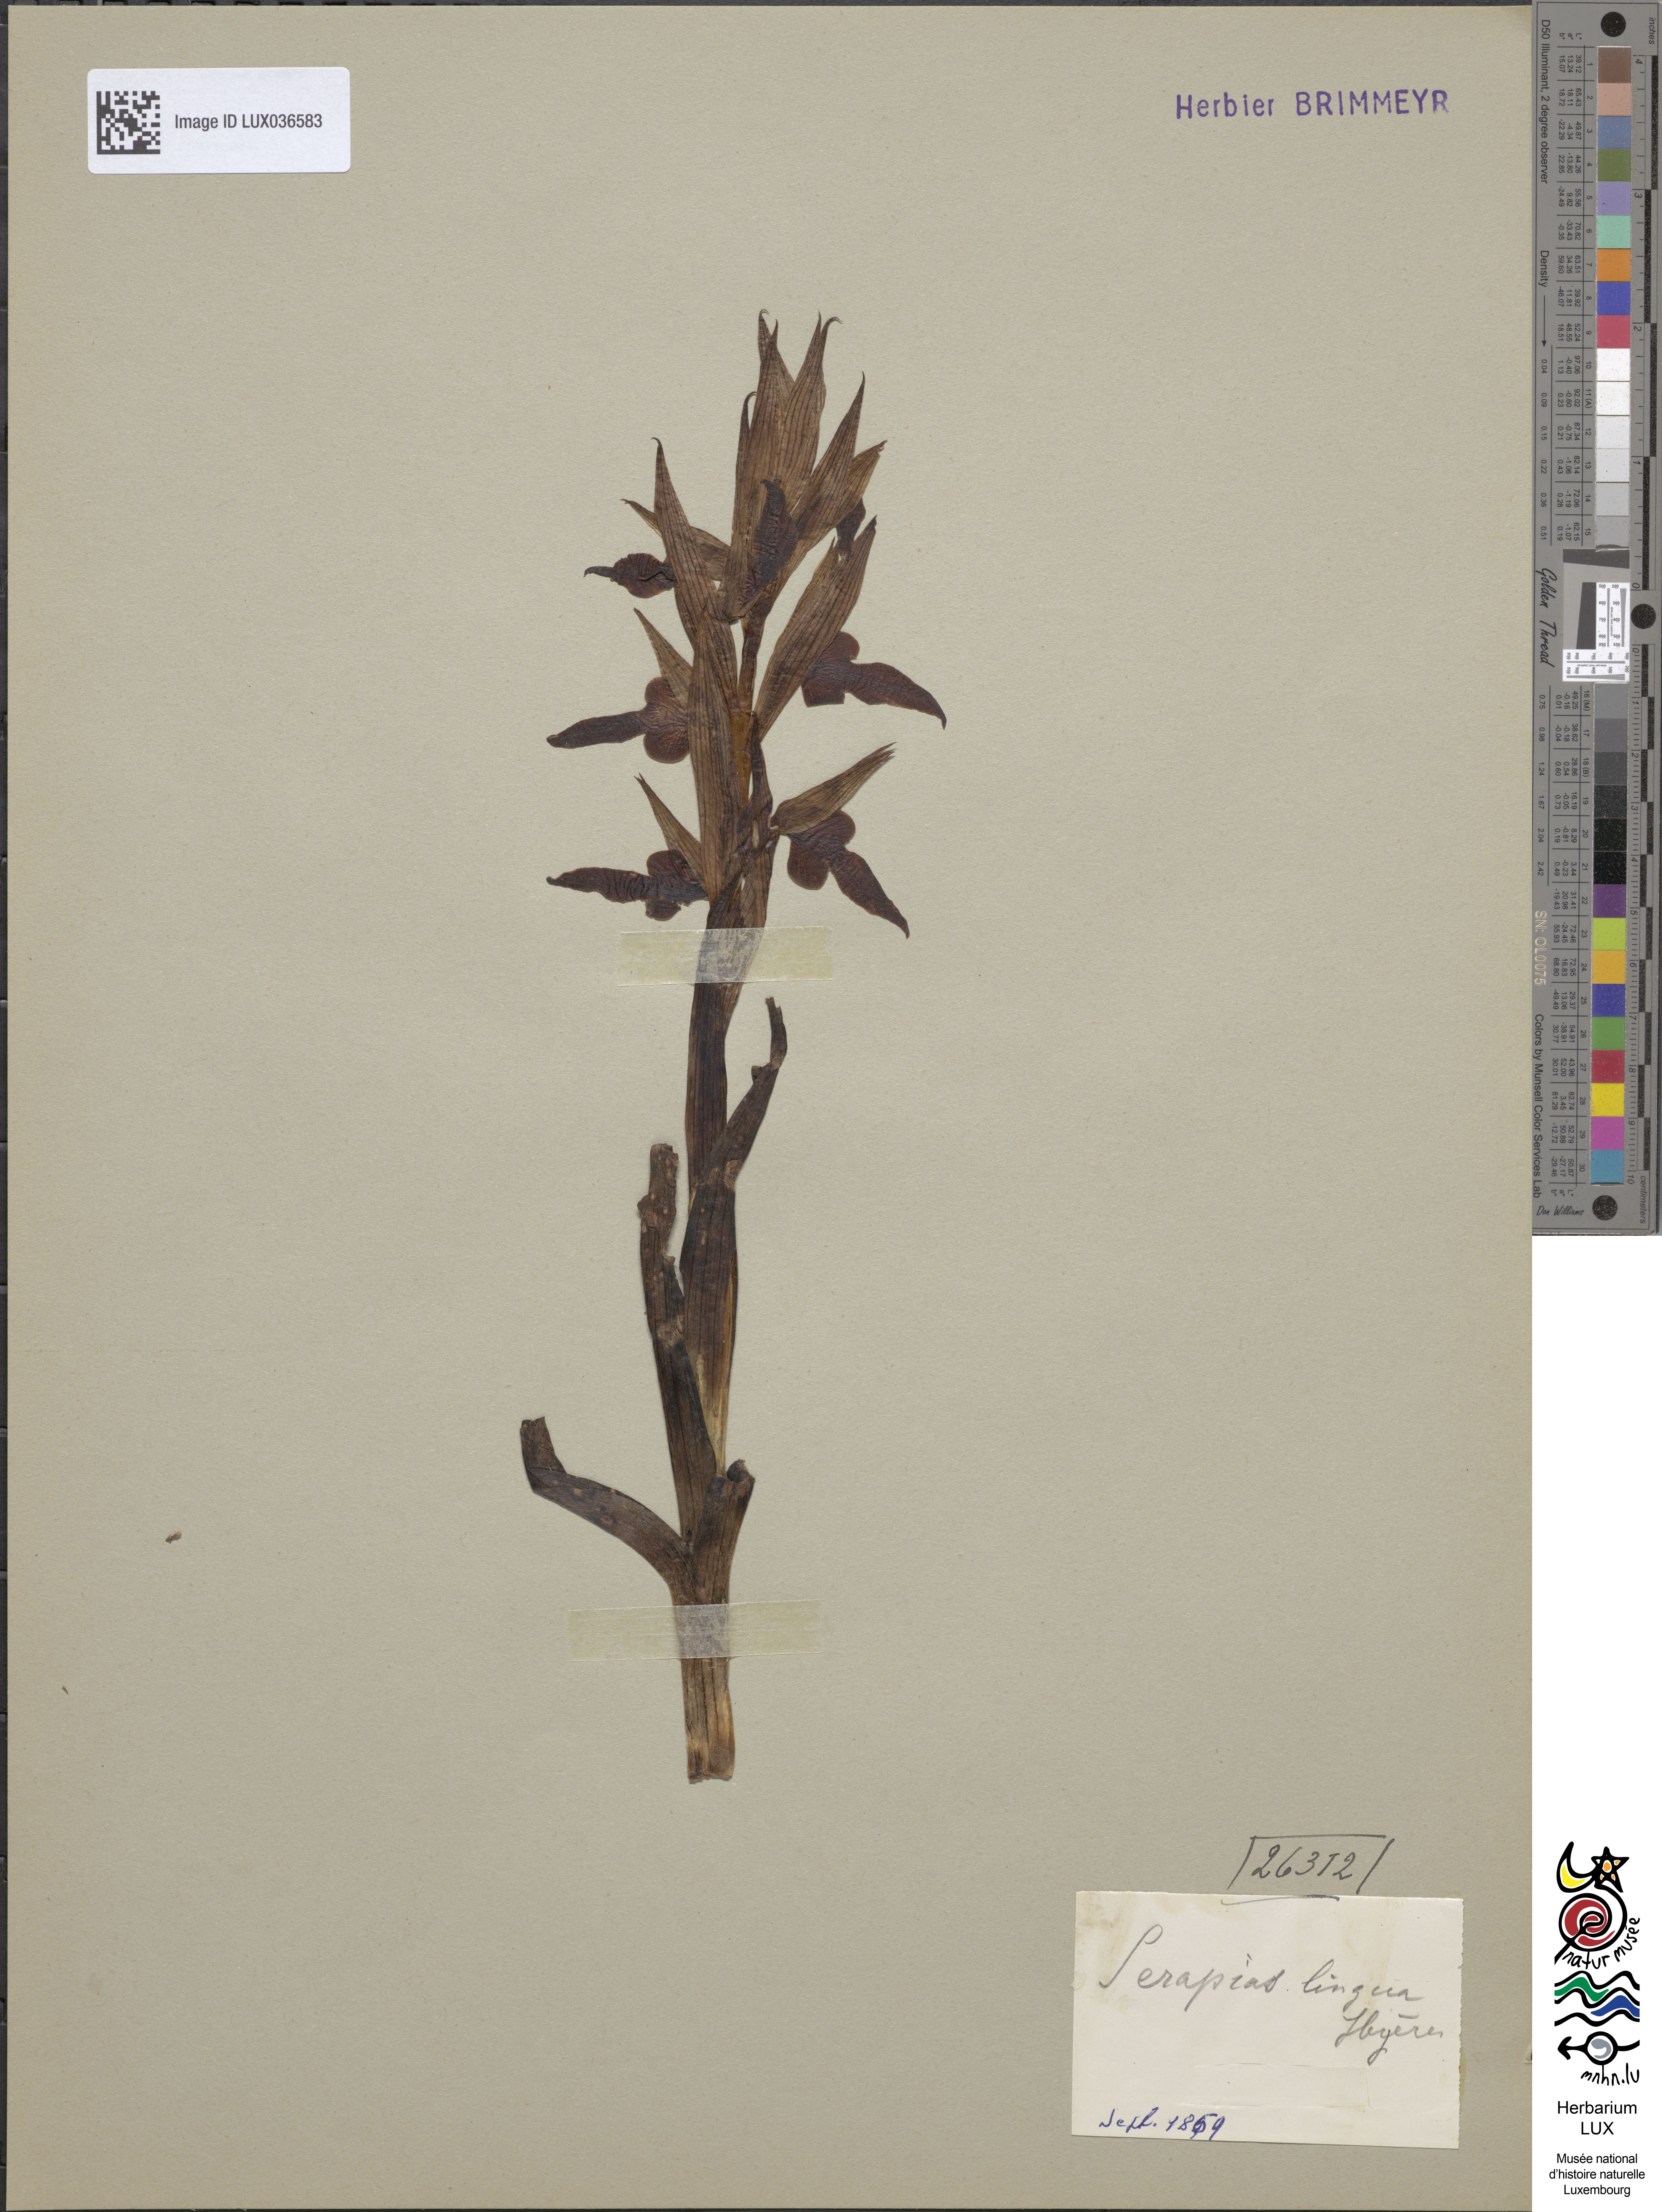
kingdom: Plantae
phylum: Tracheophyta
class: Liliopsida
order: Asparagales
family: Orchidaceae
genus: Serapias
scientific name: Serapias lingua
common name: Tongue-orchid
